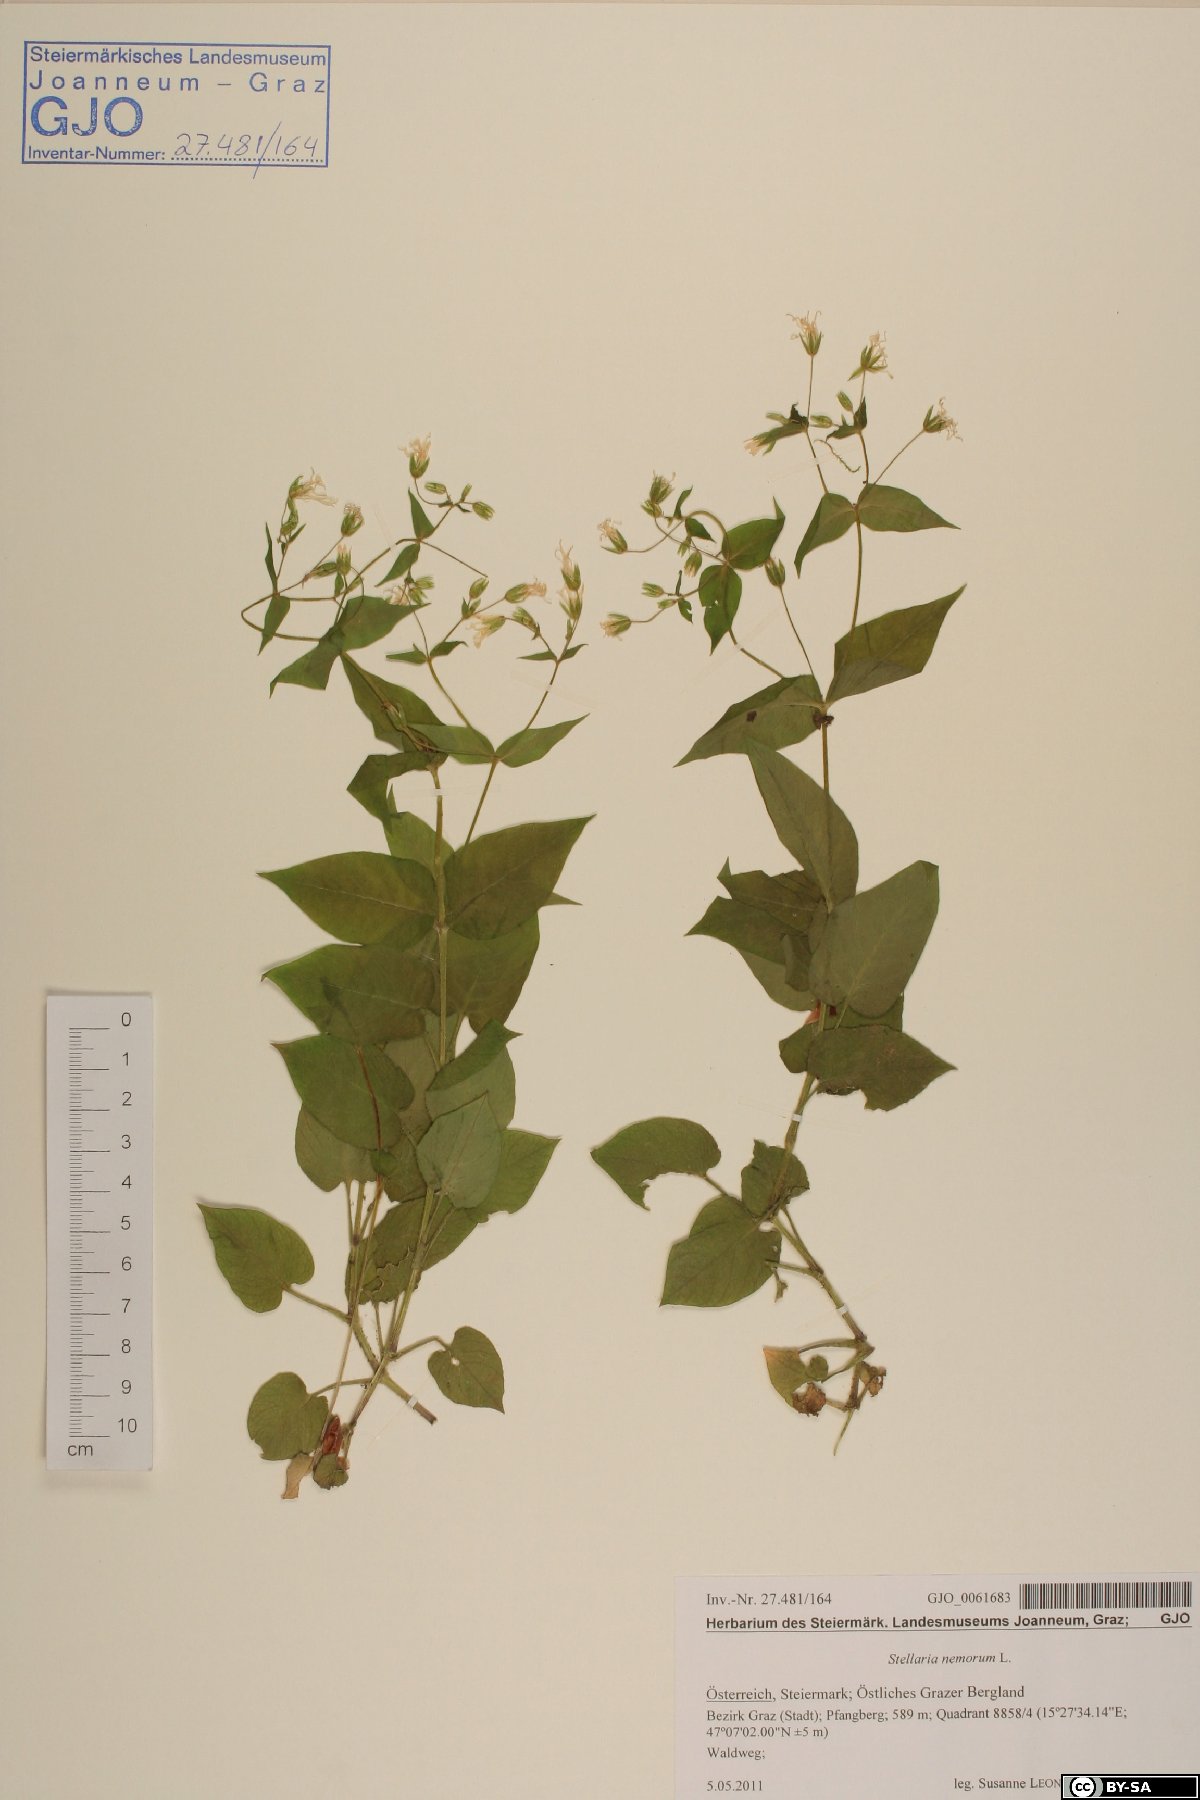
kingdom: Plantae
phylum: Tracheophyta
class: Magnoliopsida
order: Caryophyllales
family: Caryophyllaceae
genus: Stellaria
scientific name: Stellaria nemorum
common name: Wood stitchwort
